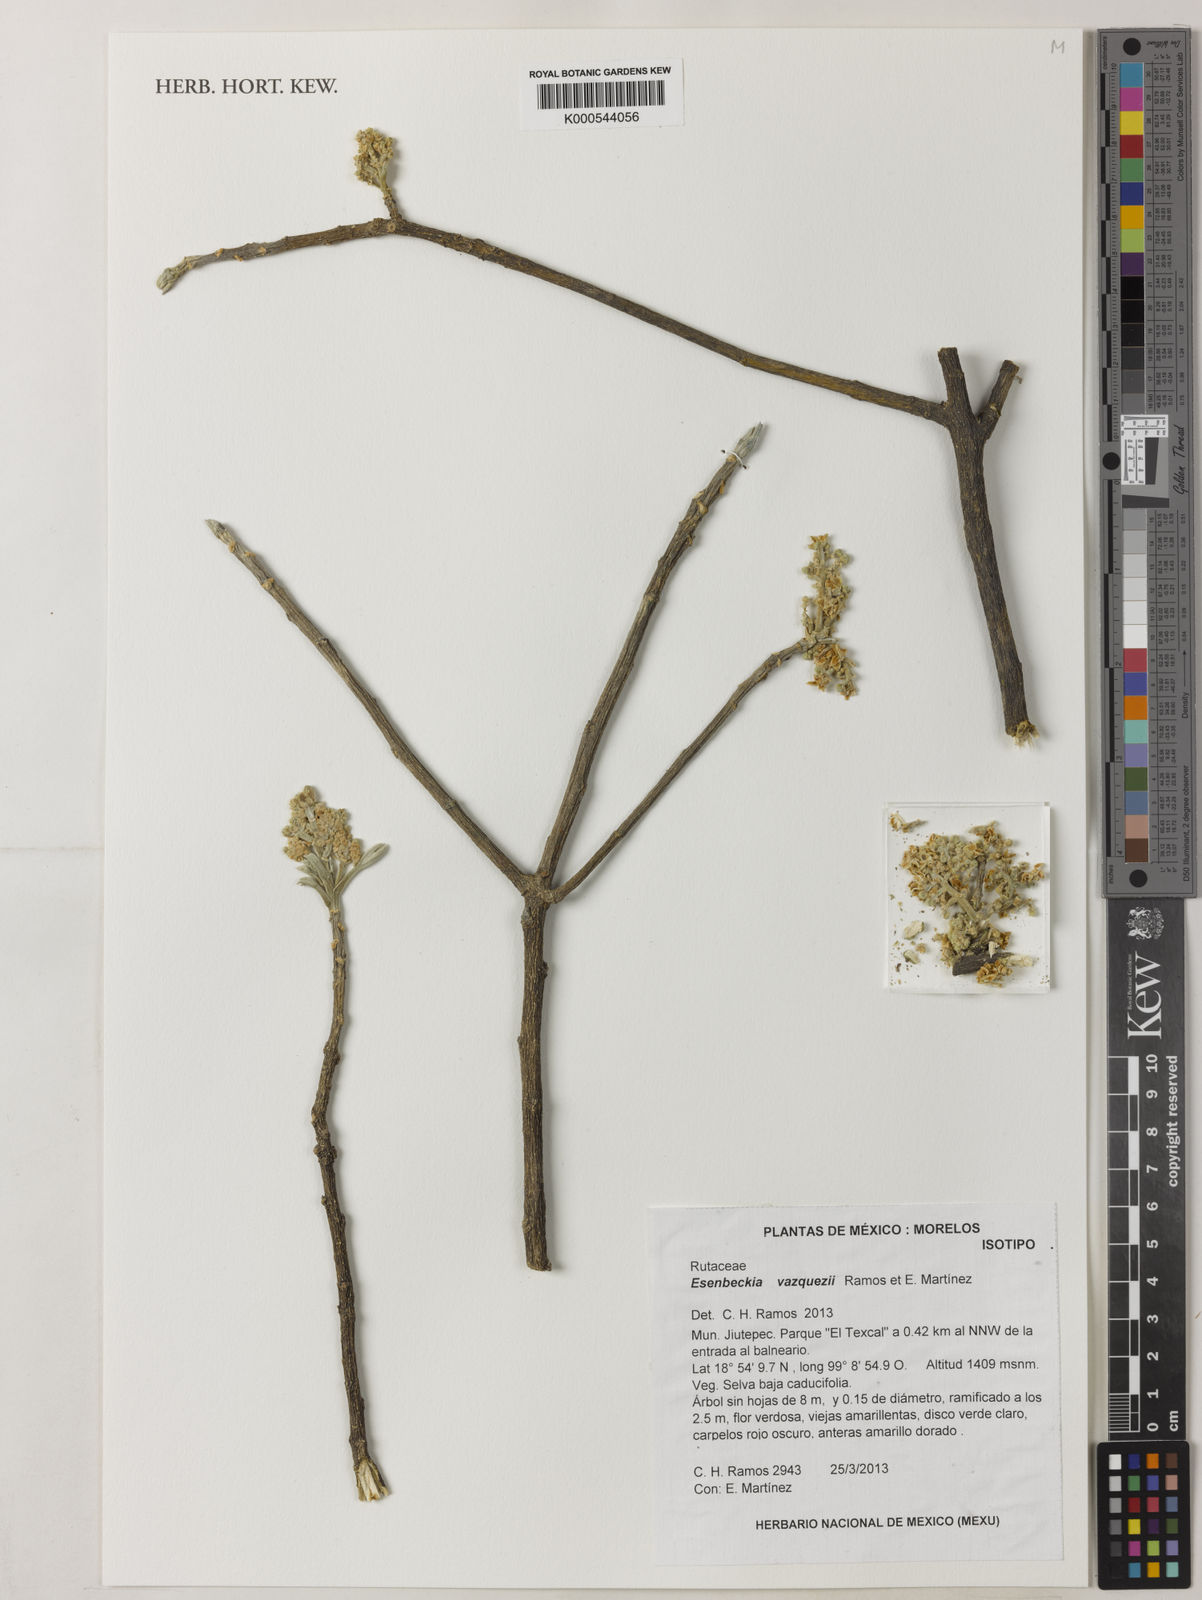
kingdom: Plantae
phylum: Tracheophyta
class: Magnoliopsida
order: Sapindales
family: Rutaceae
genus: Esenbeckia
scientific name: Esenbeckia
